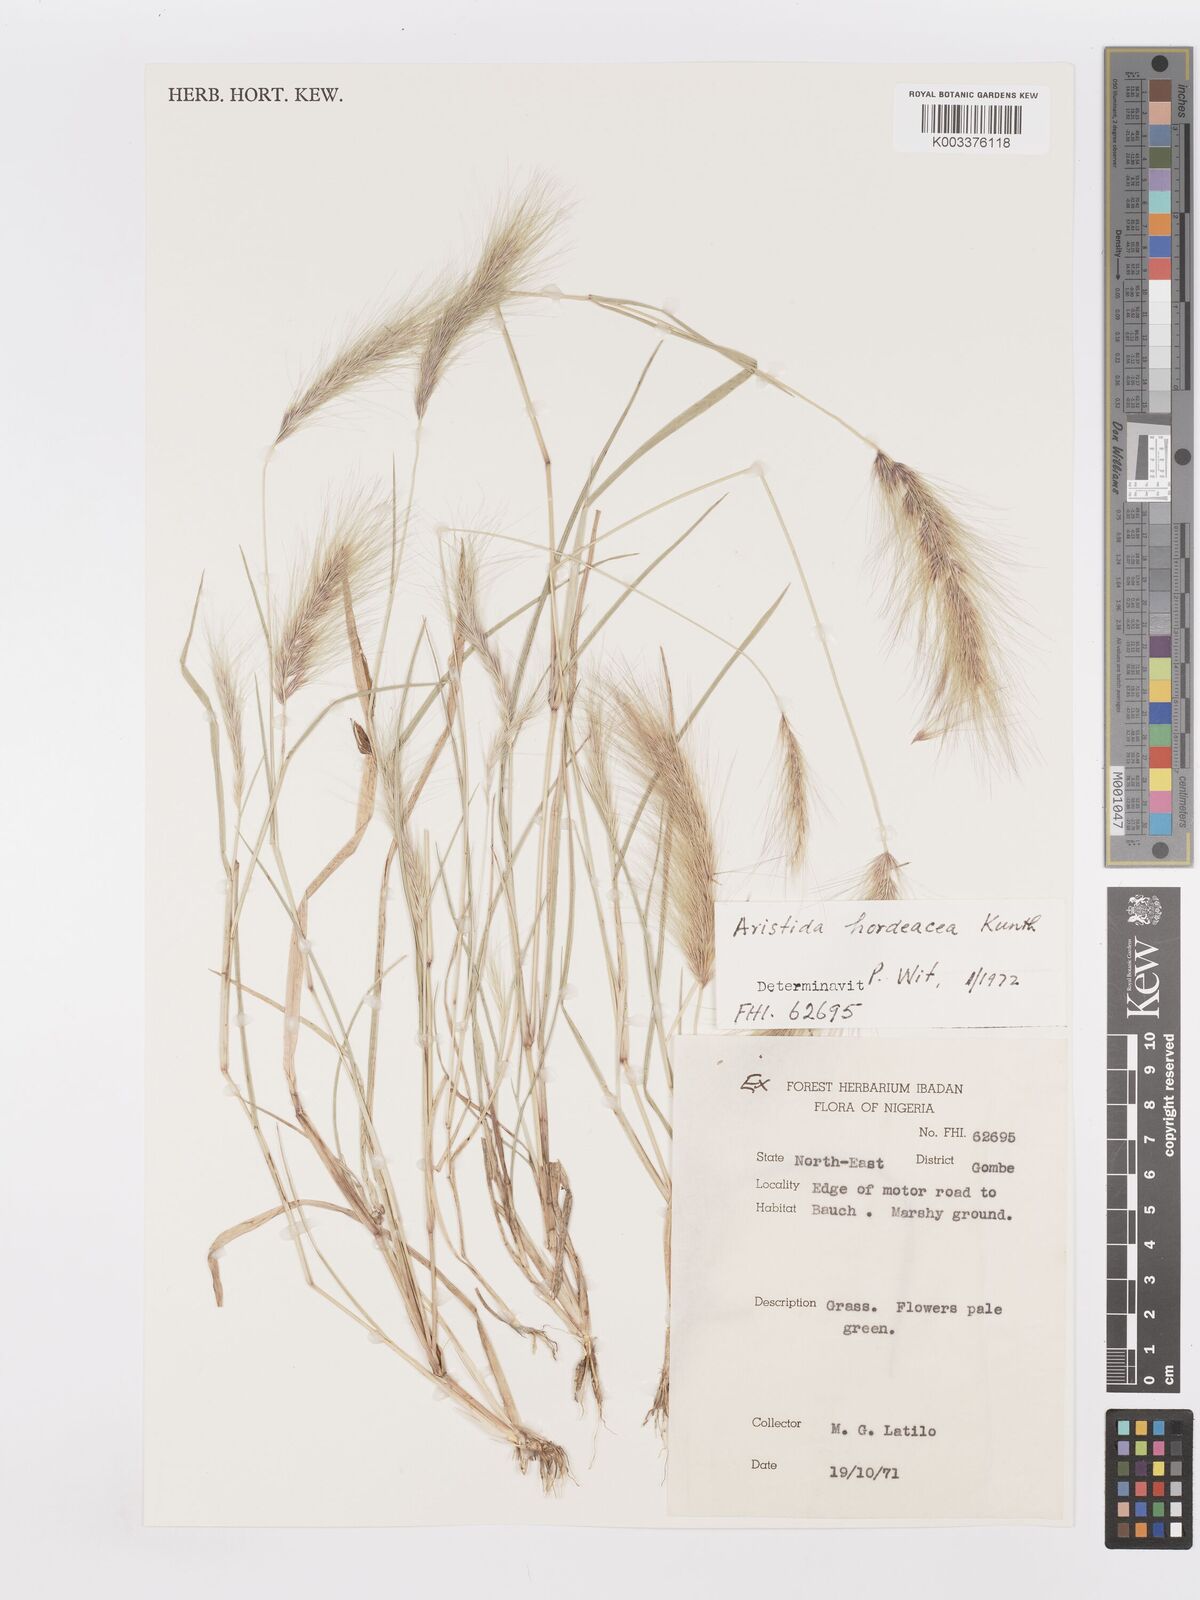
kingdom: Plantae
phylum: Tracheophyta
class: Liliopsida
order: Poales
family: Poaceae
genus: Aristida
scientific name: Aristida hordeacea
